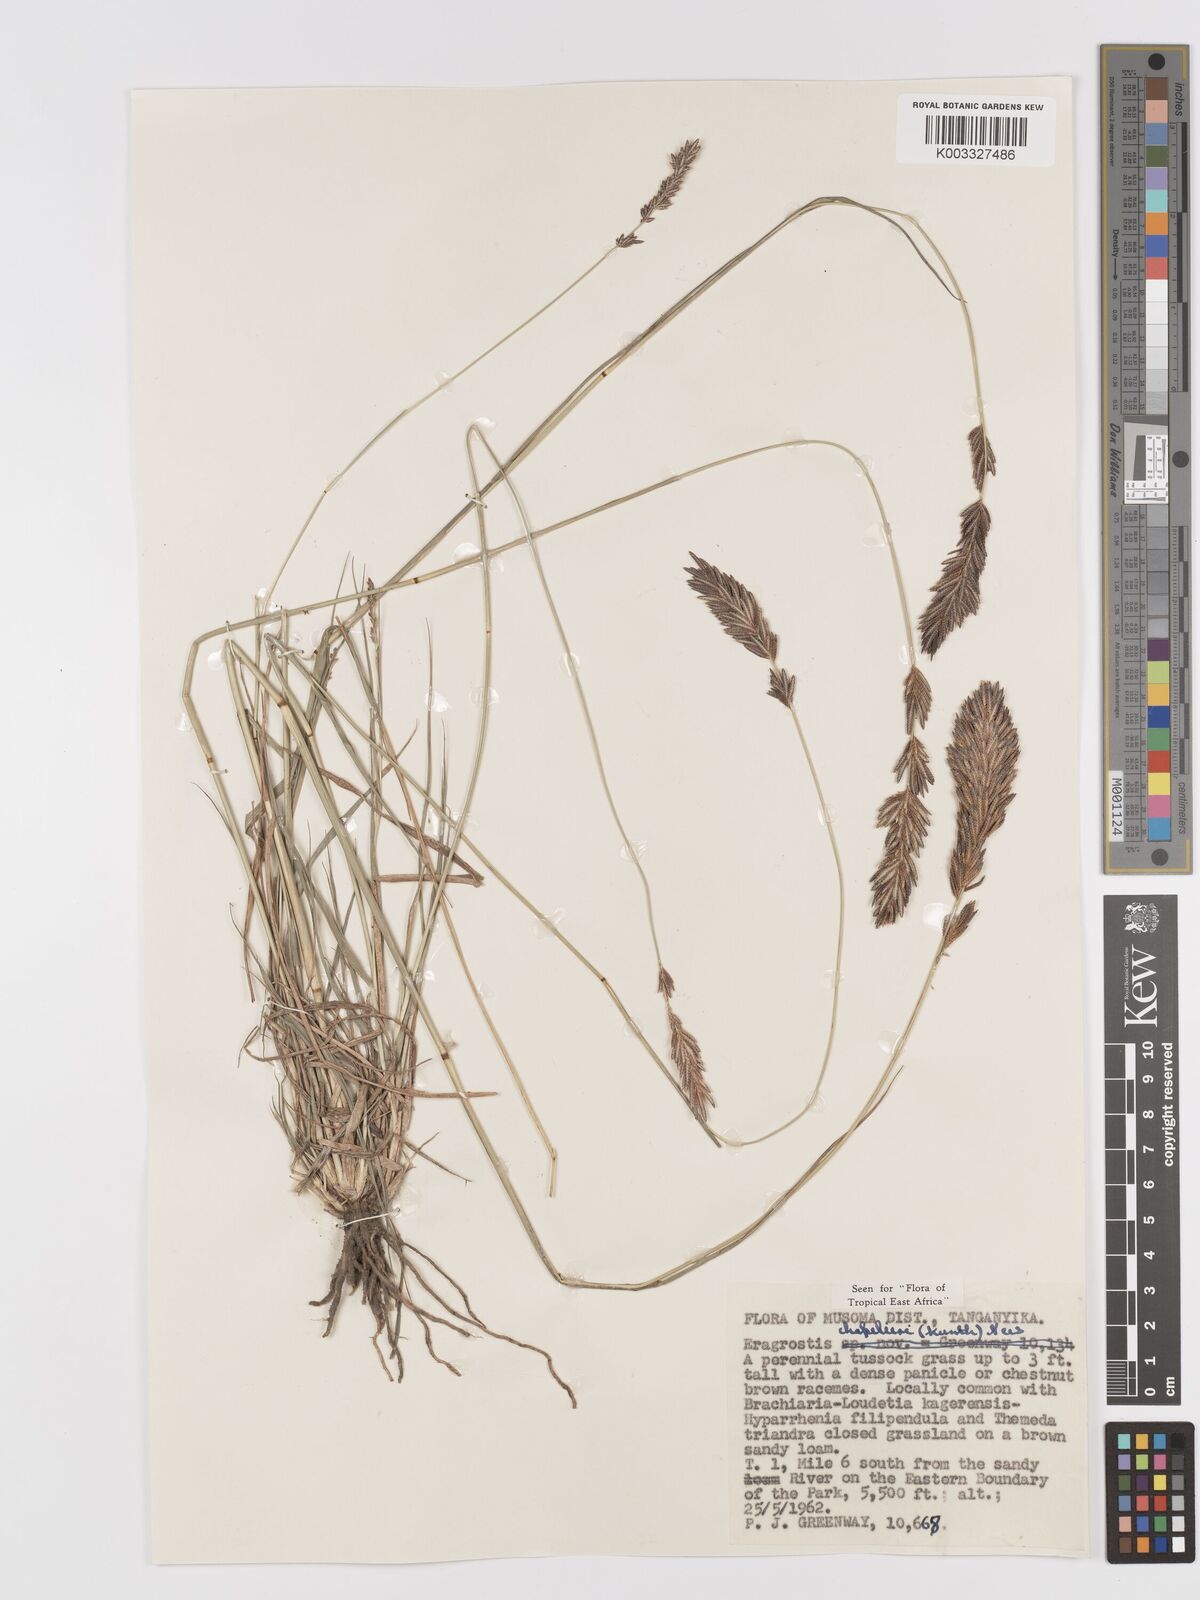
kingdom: Plantae
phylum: Tracheophyta
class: Liliopsida
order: Poales
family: Poaceae
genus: Eragrostis
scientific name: Eragrostis chapelieri
